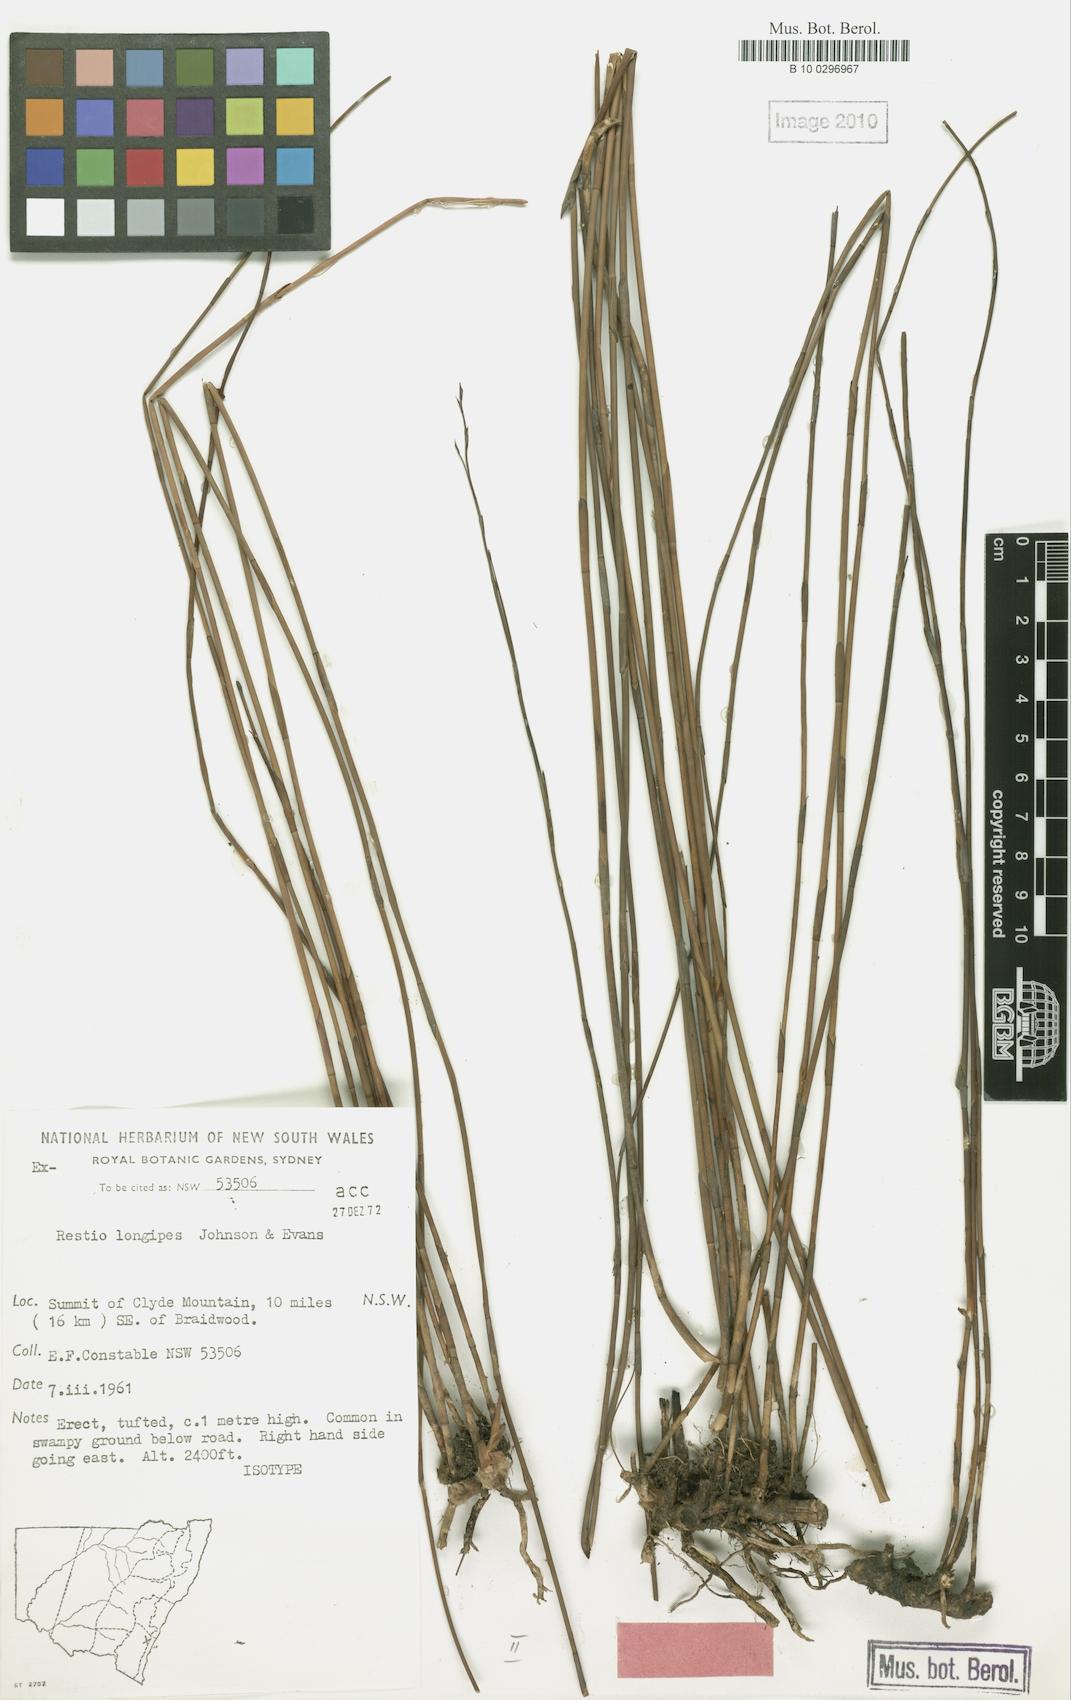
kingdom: Plantae
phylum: Tracheophyta
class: Liliopsida
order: Poales
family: Restionaceae
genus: Baloskion
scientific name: Baloskion longipes
